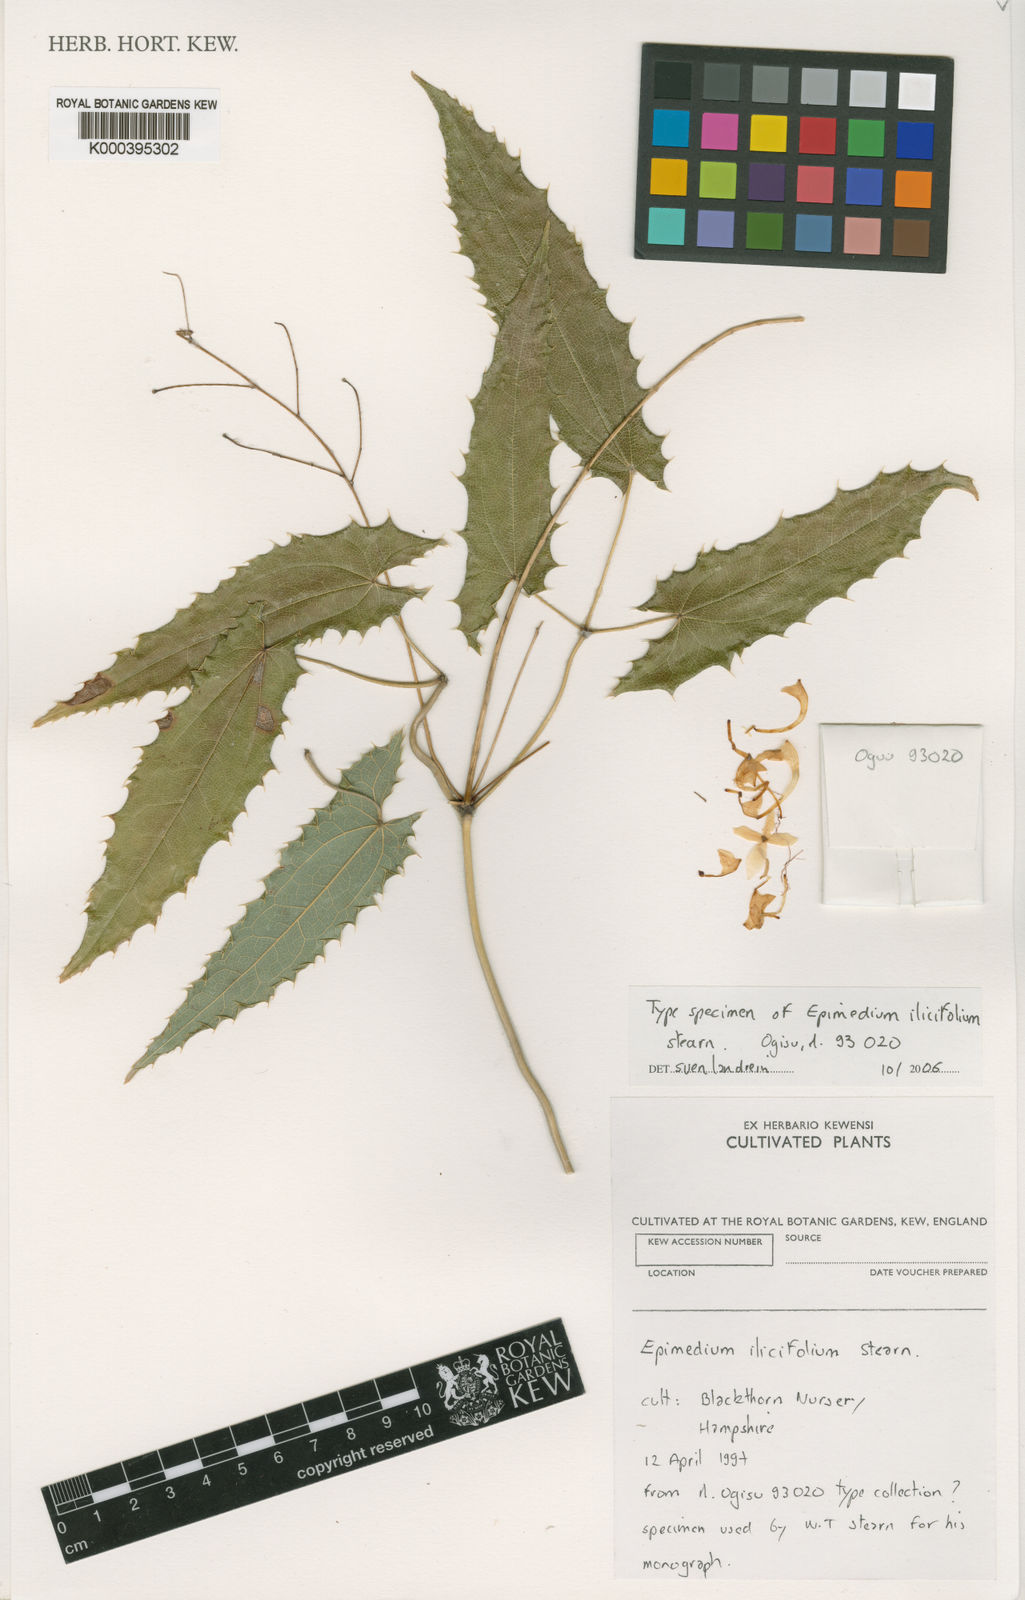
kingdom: Plantae
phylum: Tracheophyta
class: Magnoliopsida
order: Ranunculales
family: Berberidaceae
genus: Epimedium
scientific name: Epimedium ilicifolium
